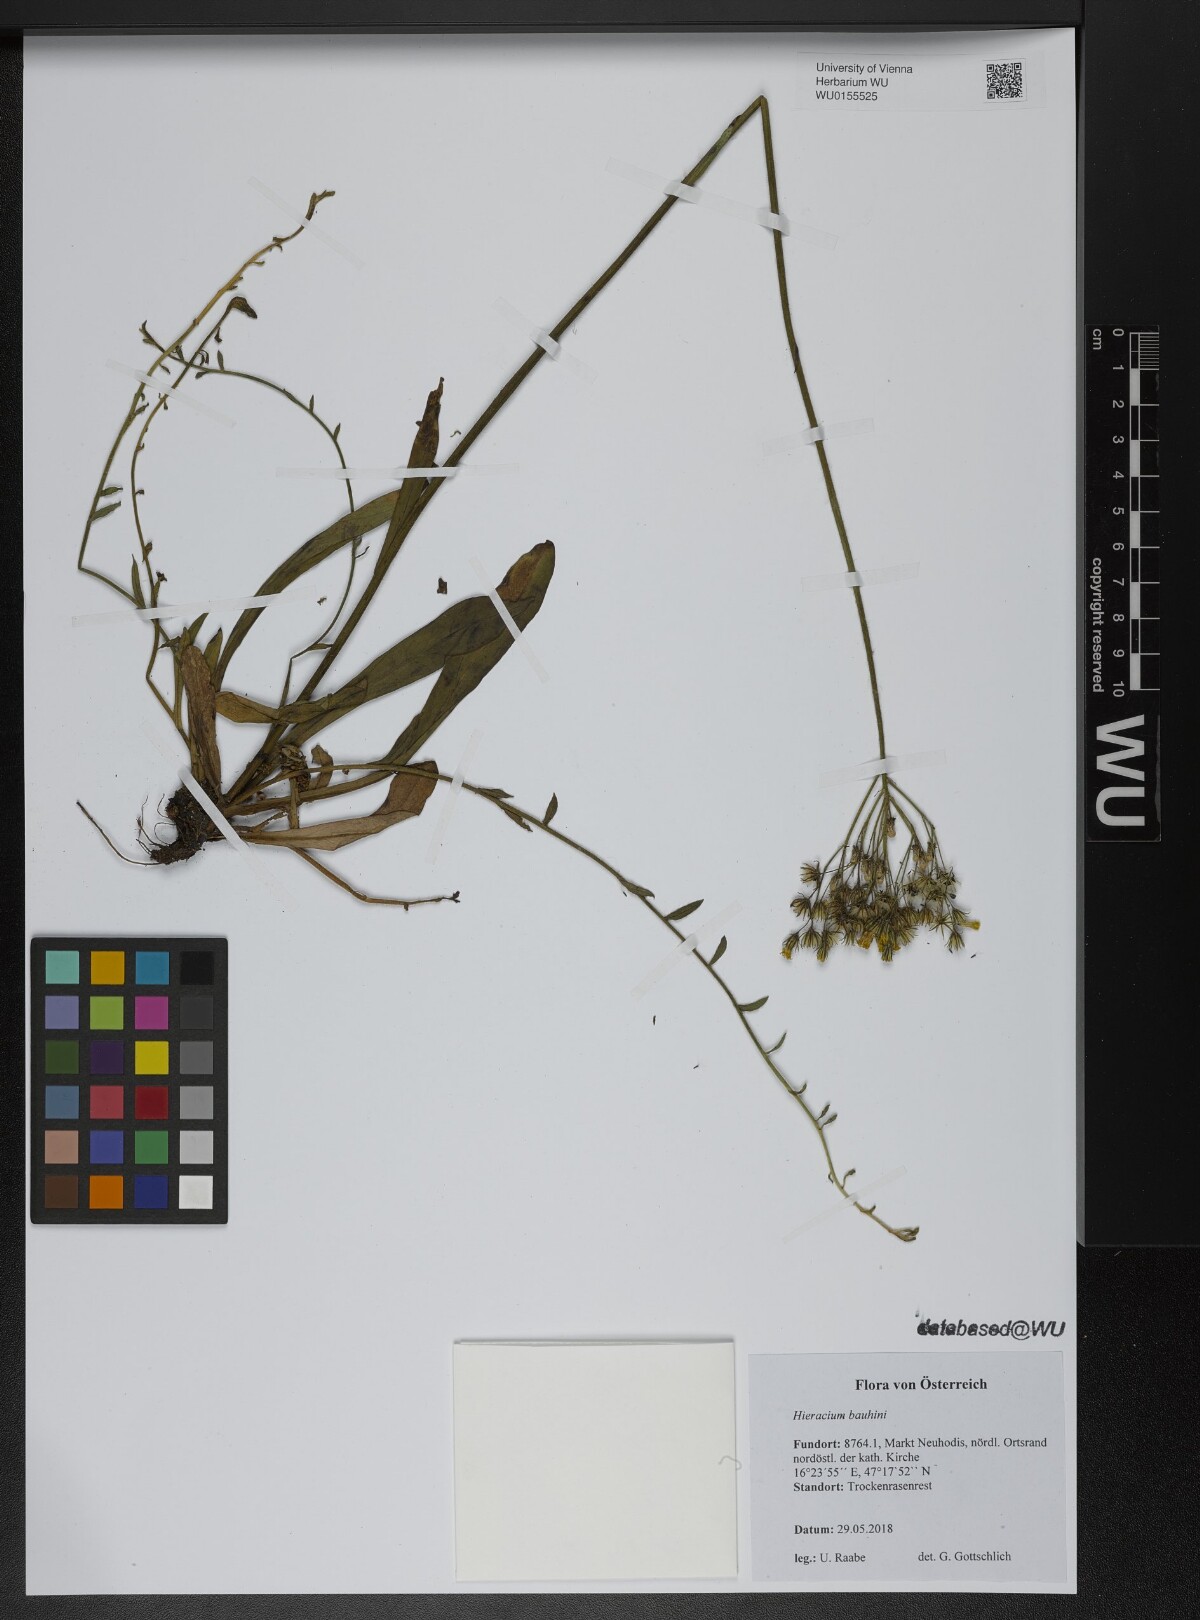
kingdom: Plantae
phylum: Tracheophyta
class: Magnoliopsida
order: Asterales
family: Asteraceae
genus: Pilosella
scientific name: Pilosella bauhini
